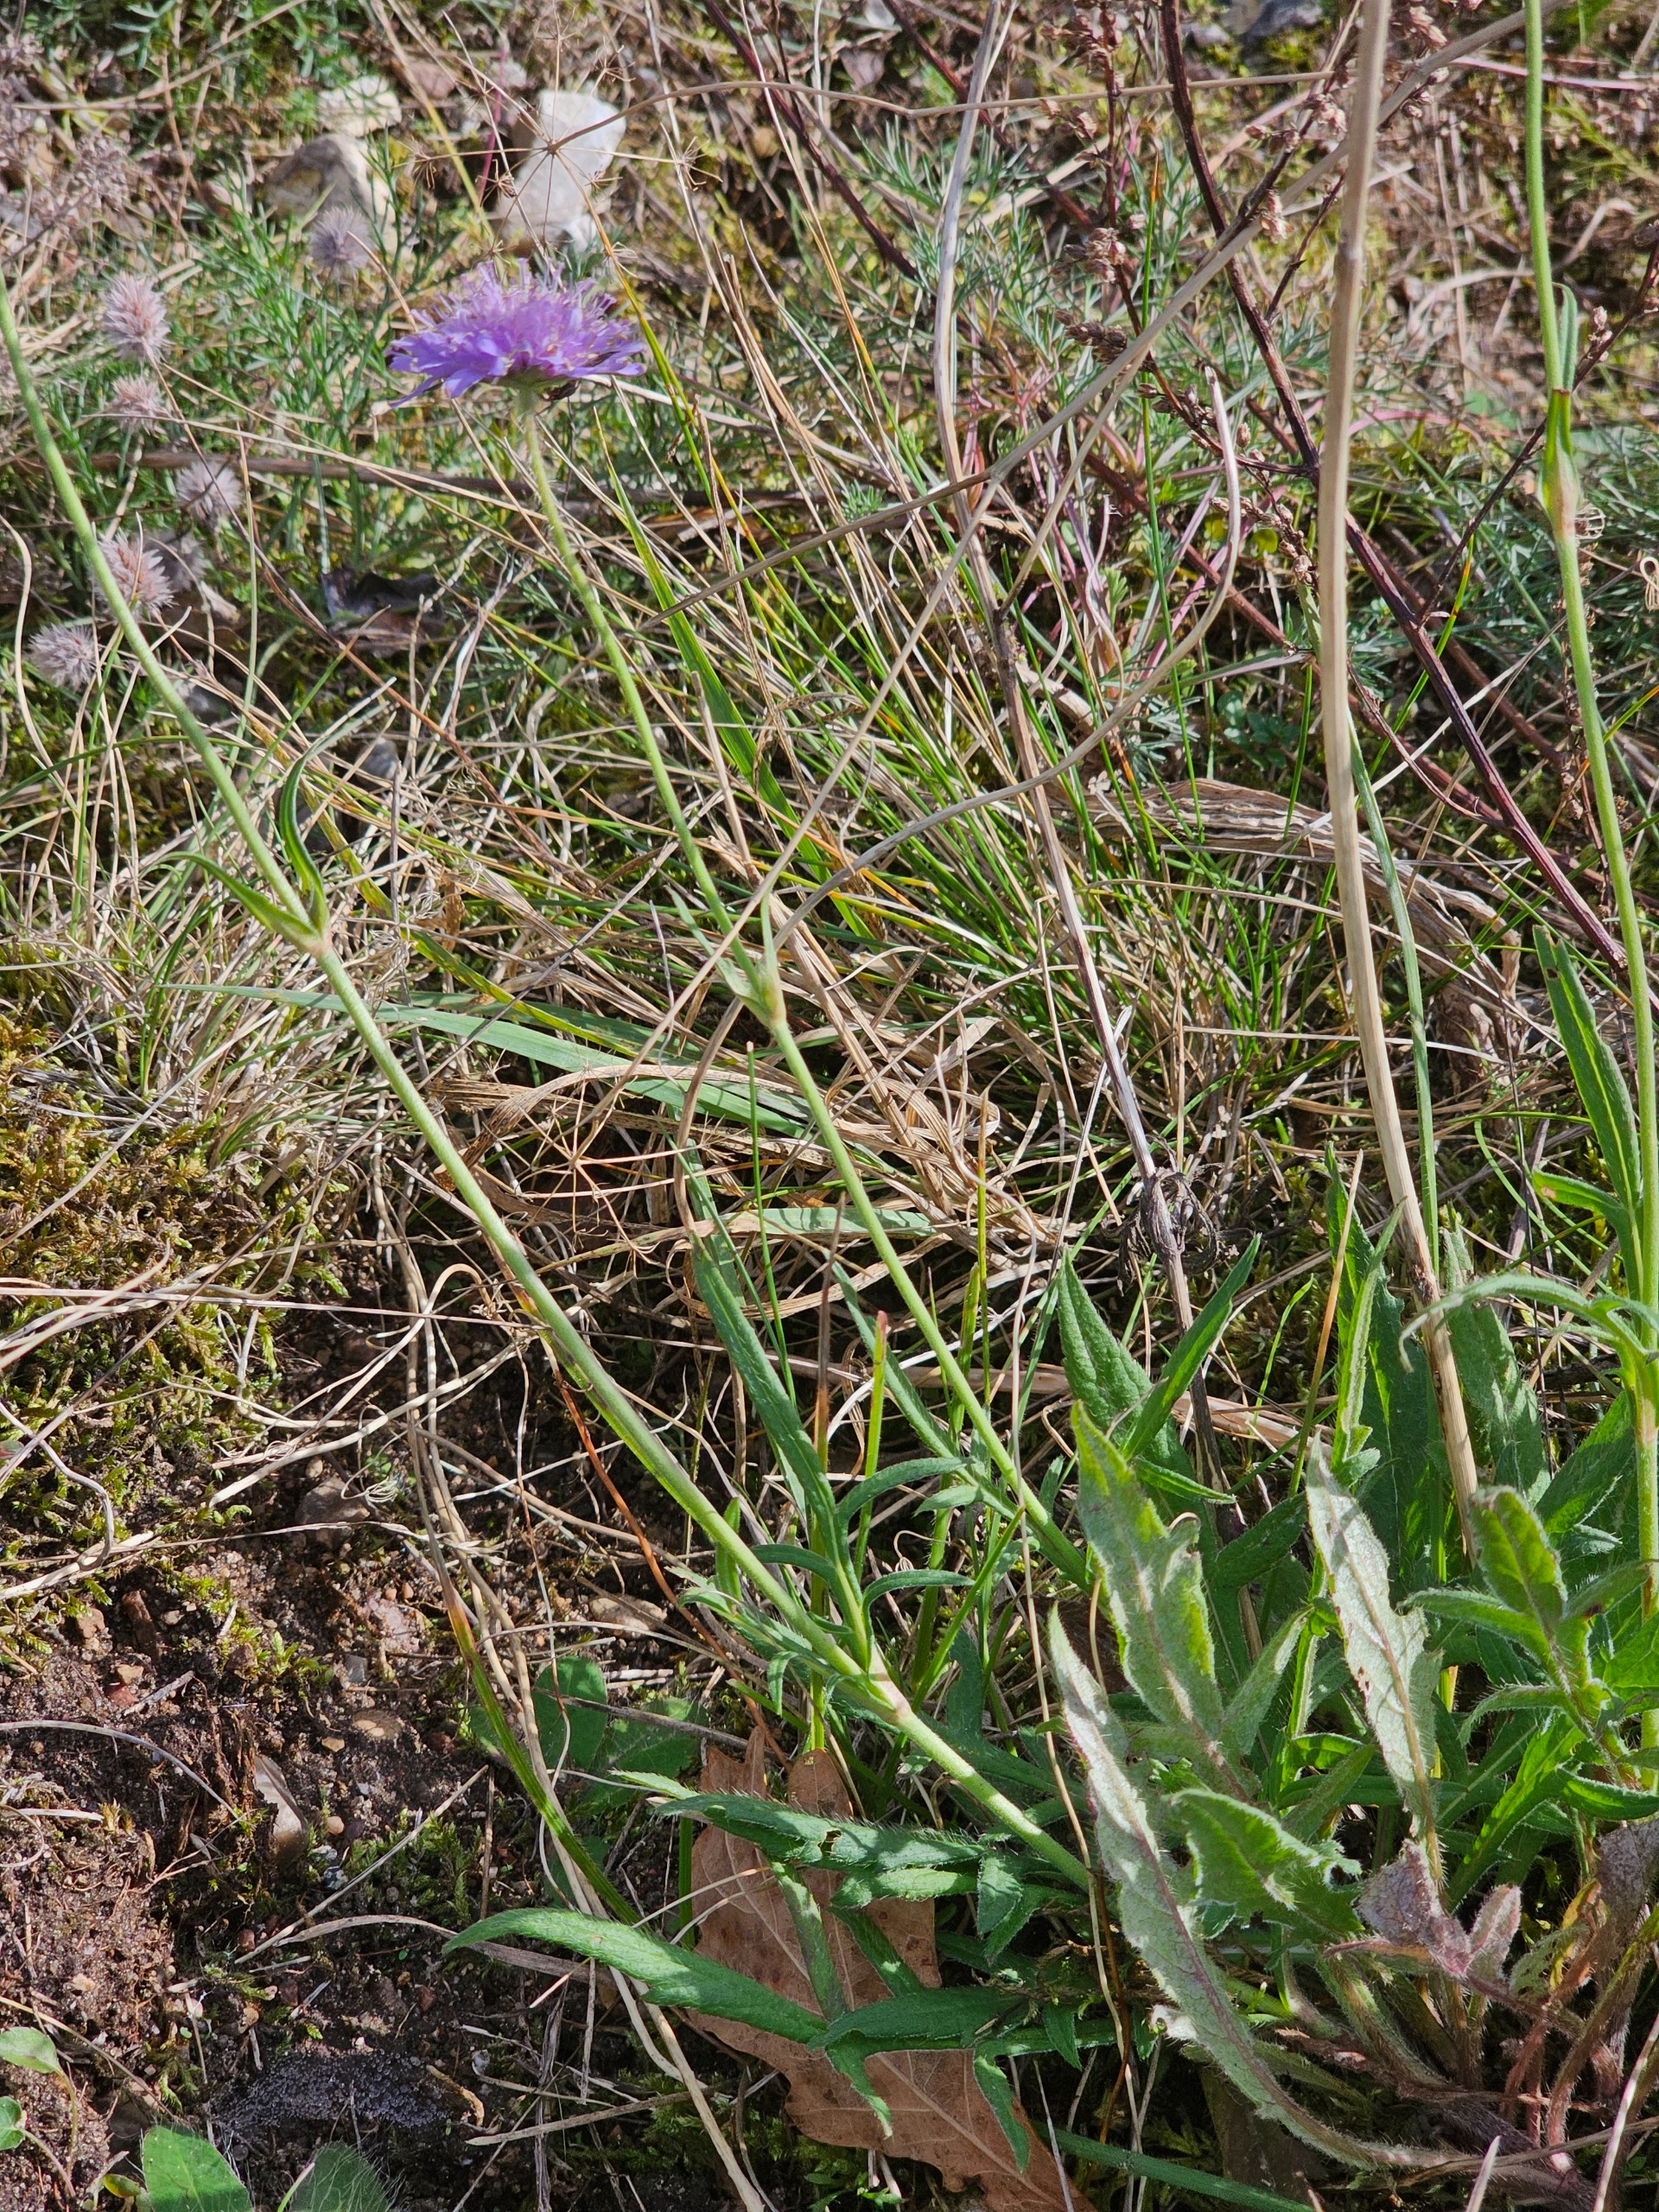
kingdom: Plantae
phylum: Tracheophyta
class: Magnoliopsida
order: Dipsacales
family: Caprifoliaceae
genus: Knautia
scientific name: Knautia arvensis
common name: Blåhat
